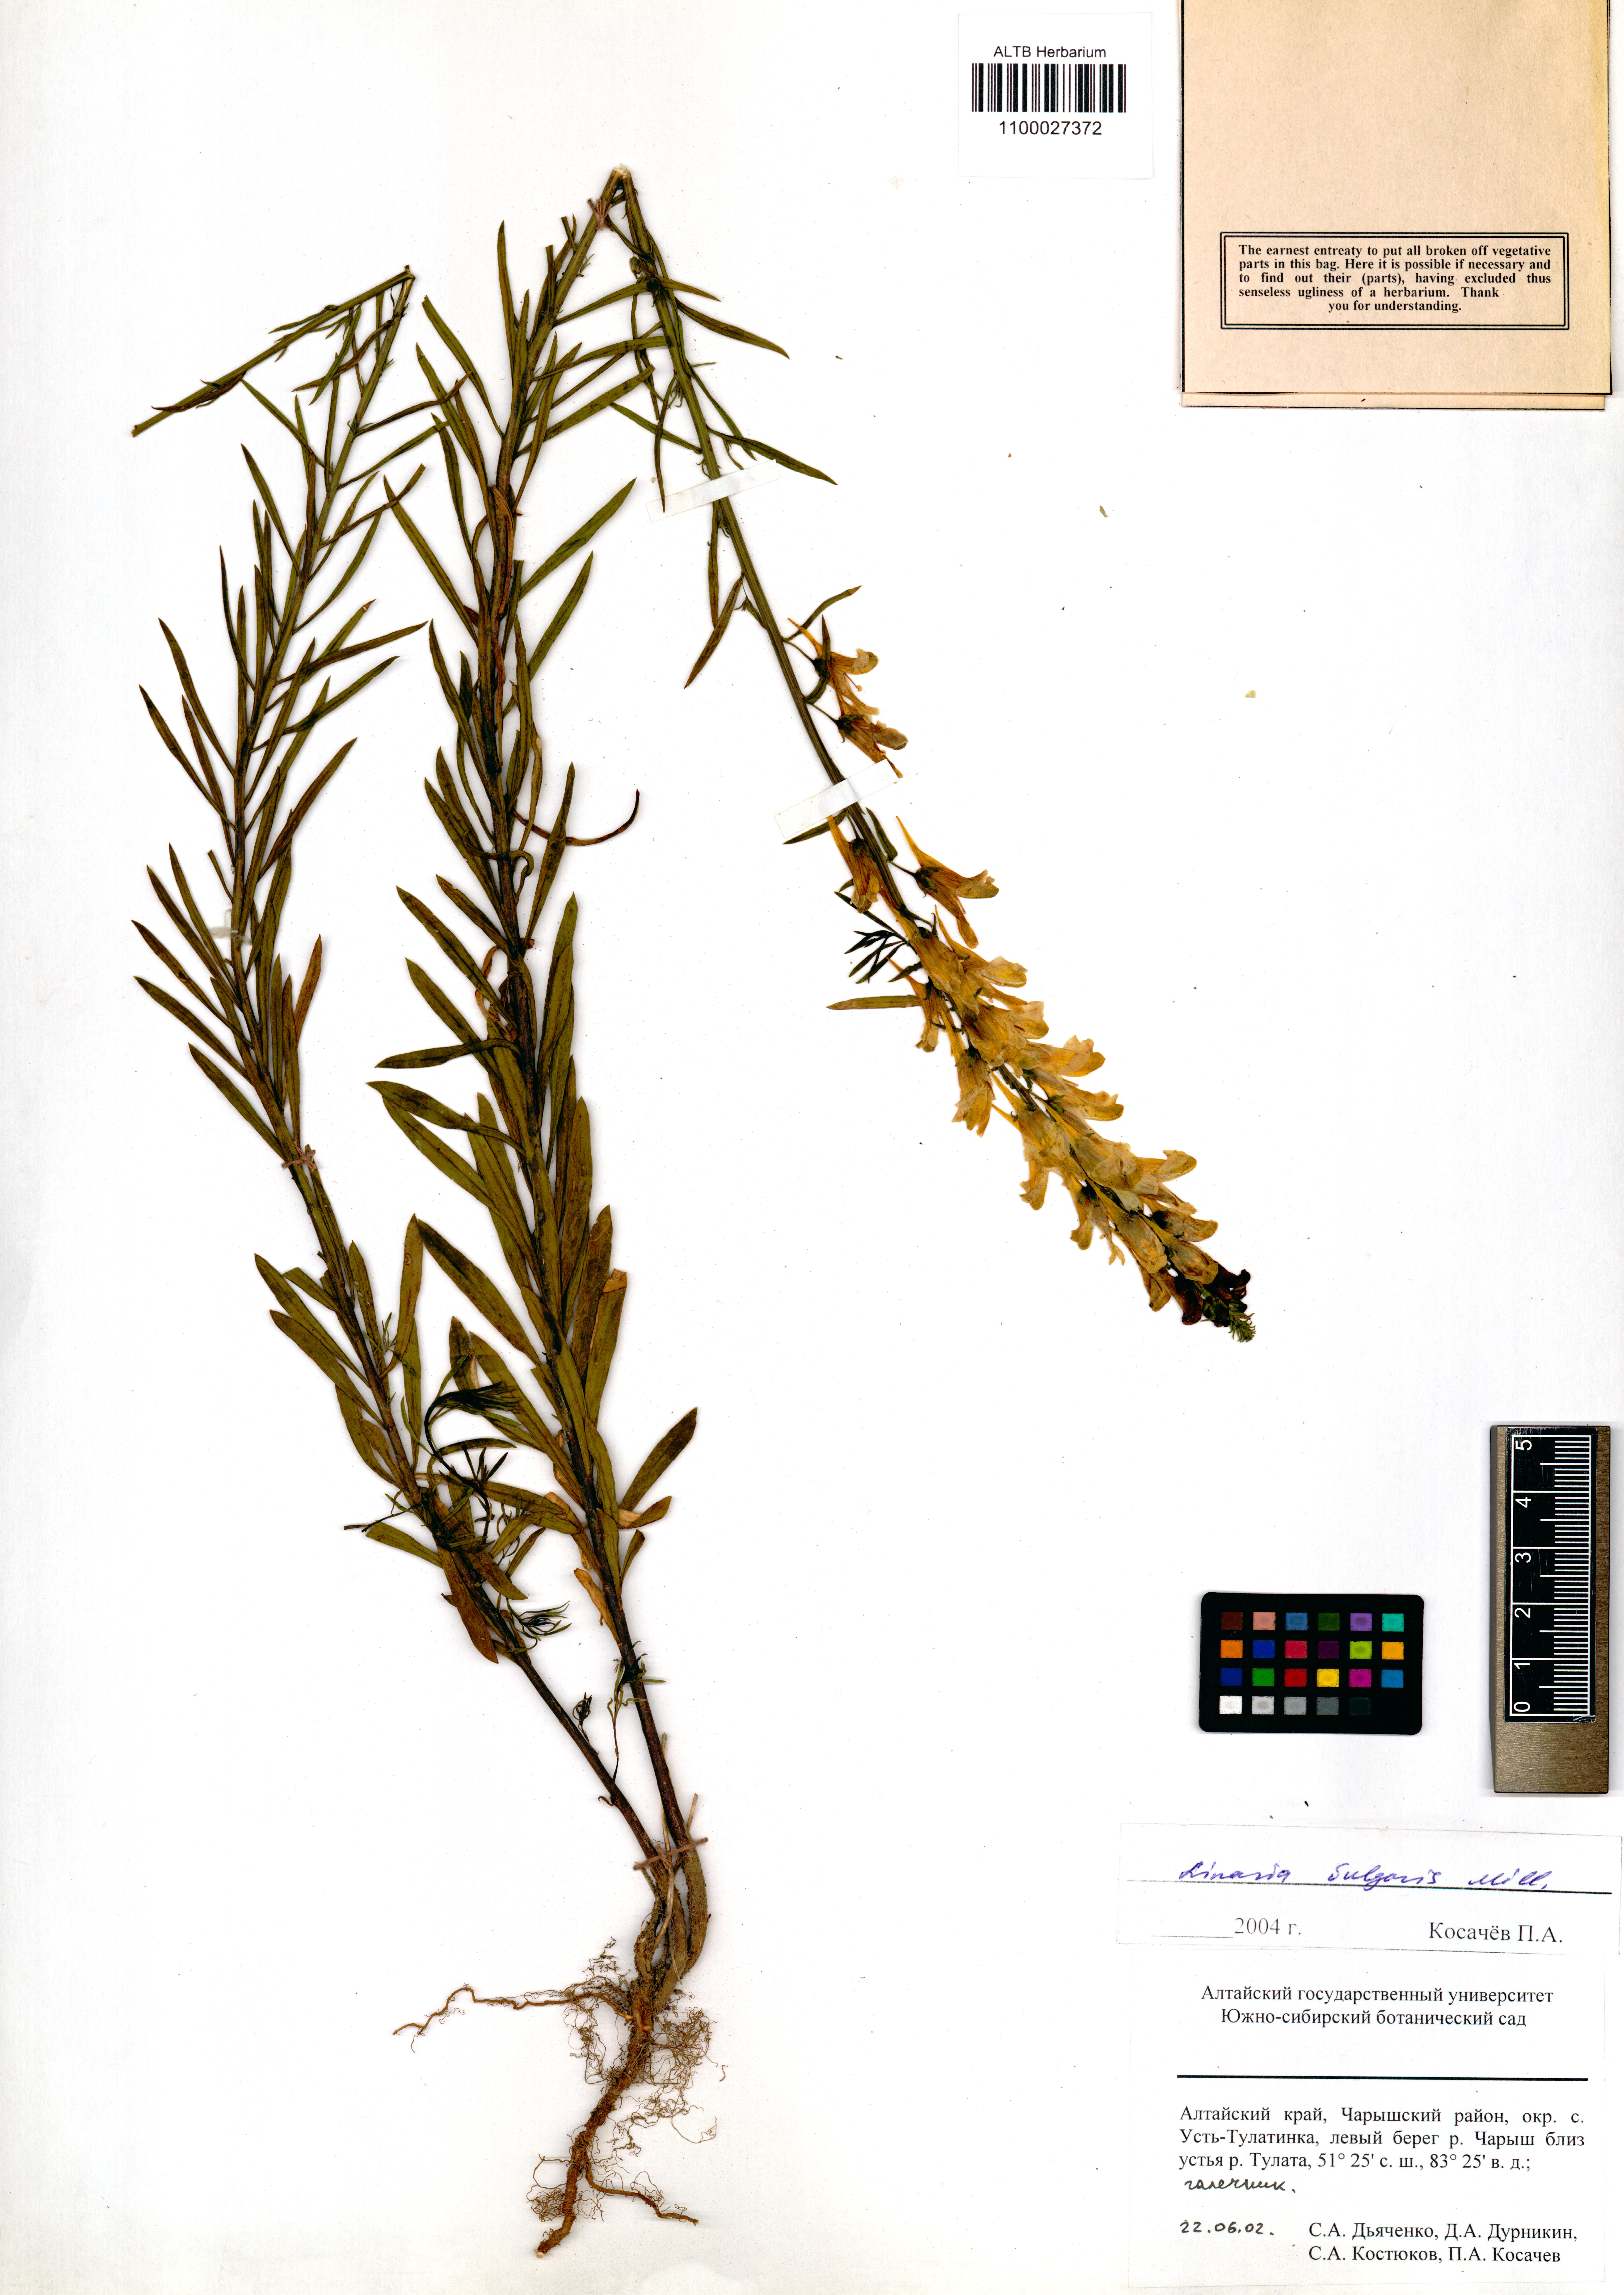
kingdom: Plantae
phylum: Tracheophyta
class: Magnoliopsida
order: Lamiales
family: Plantaginaceae
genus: Linaria
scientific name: Linaria vulgaris
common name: Butter and eggs
